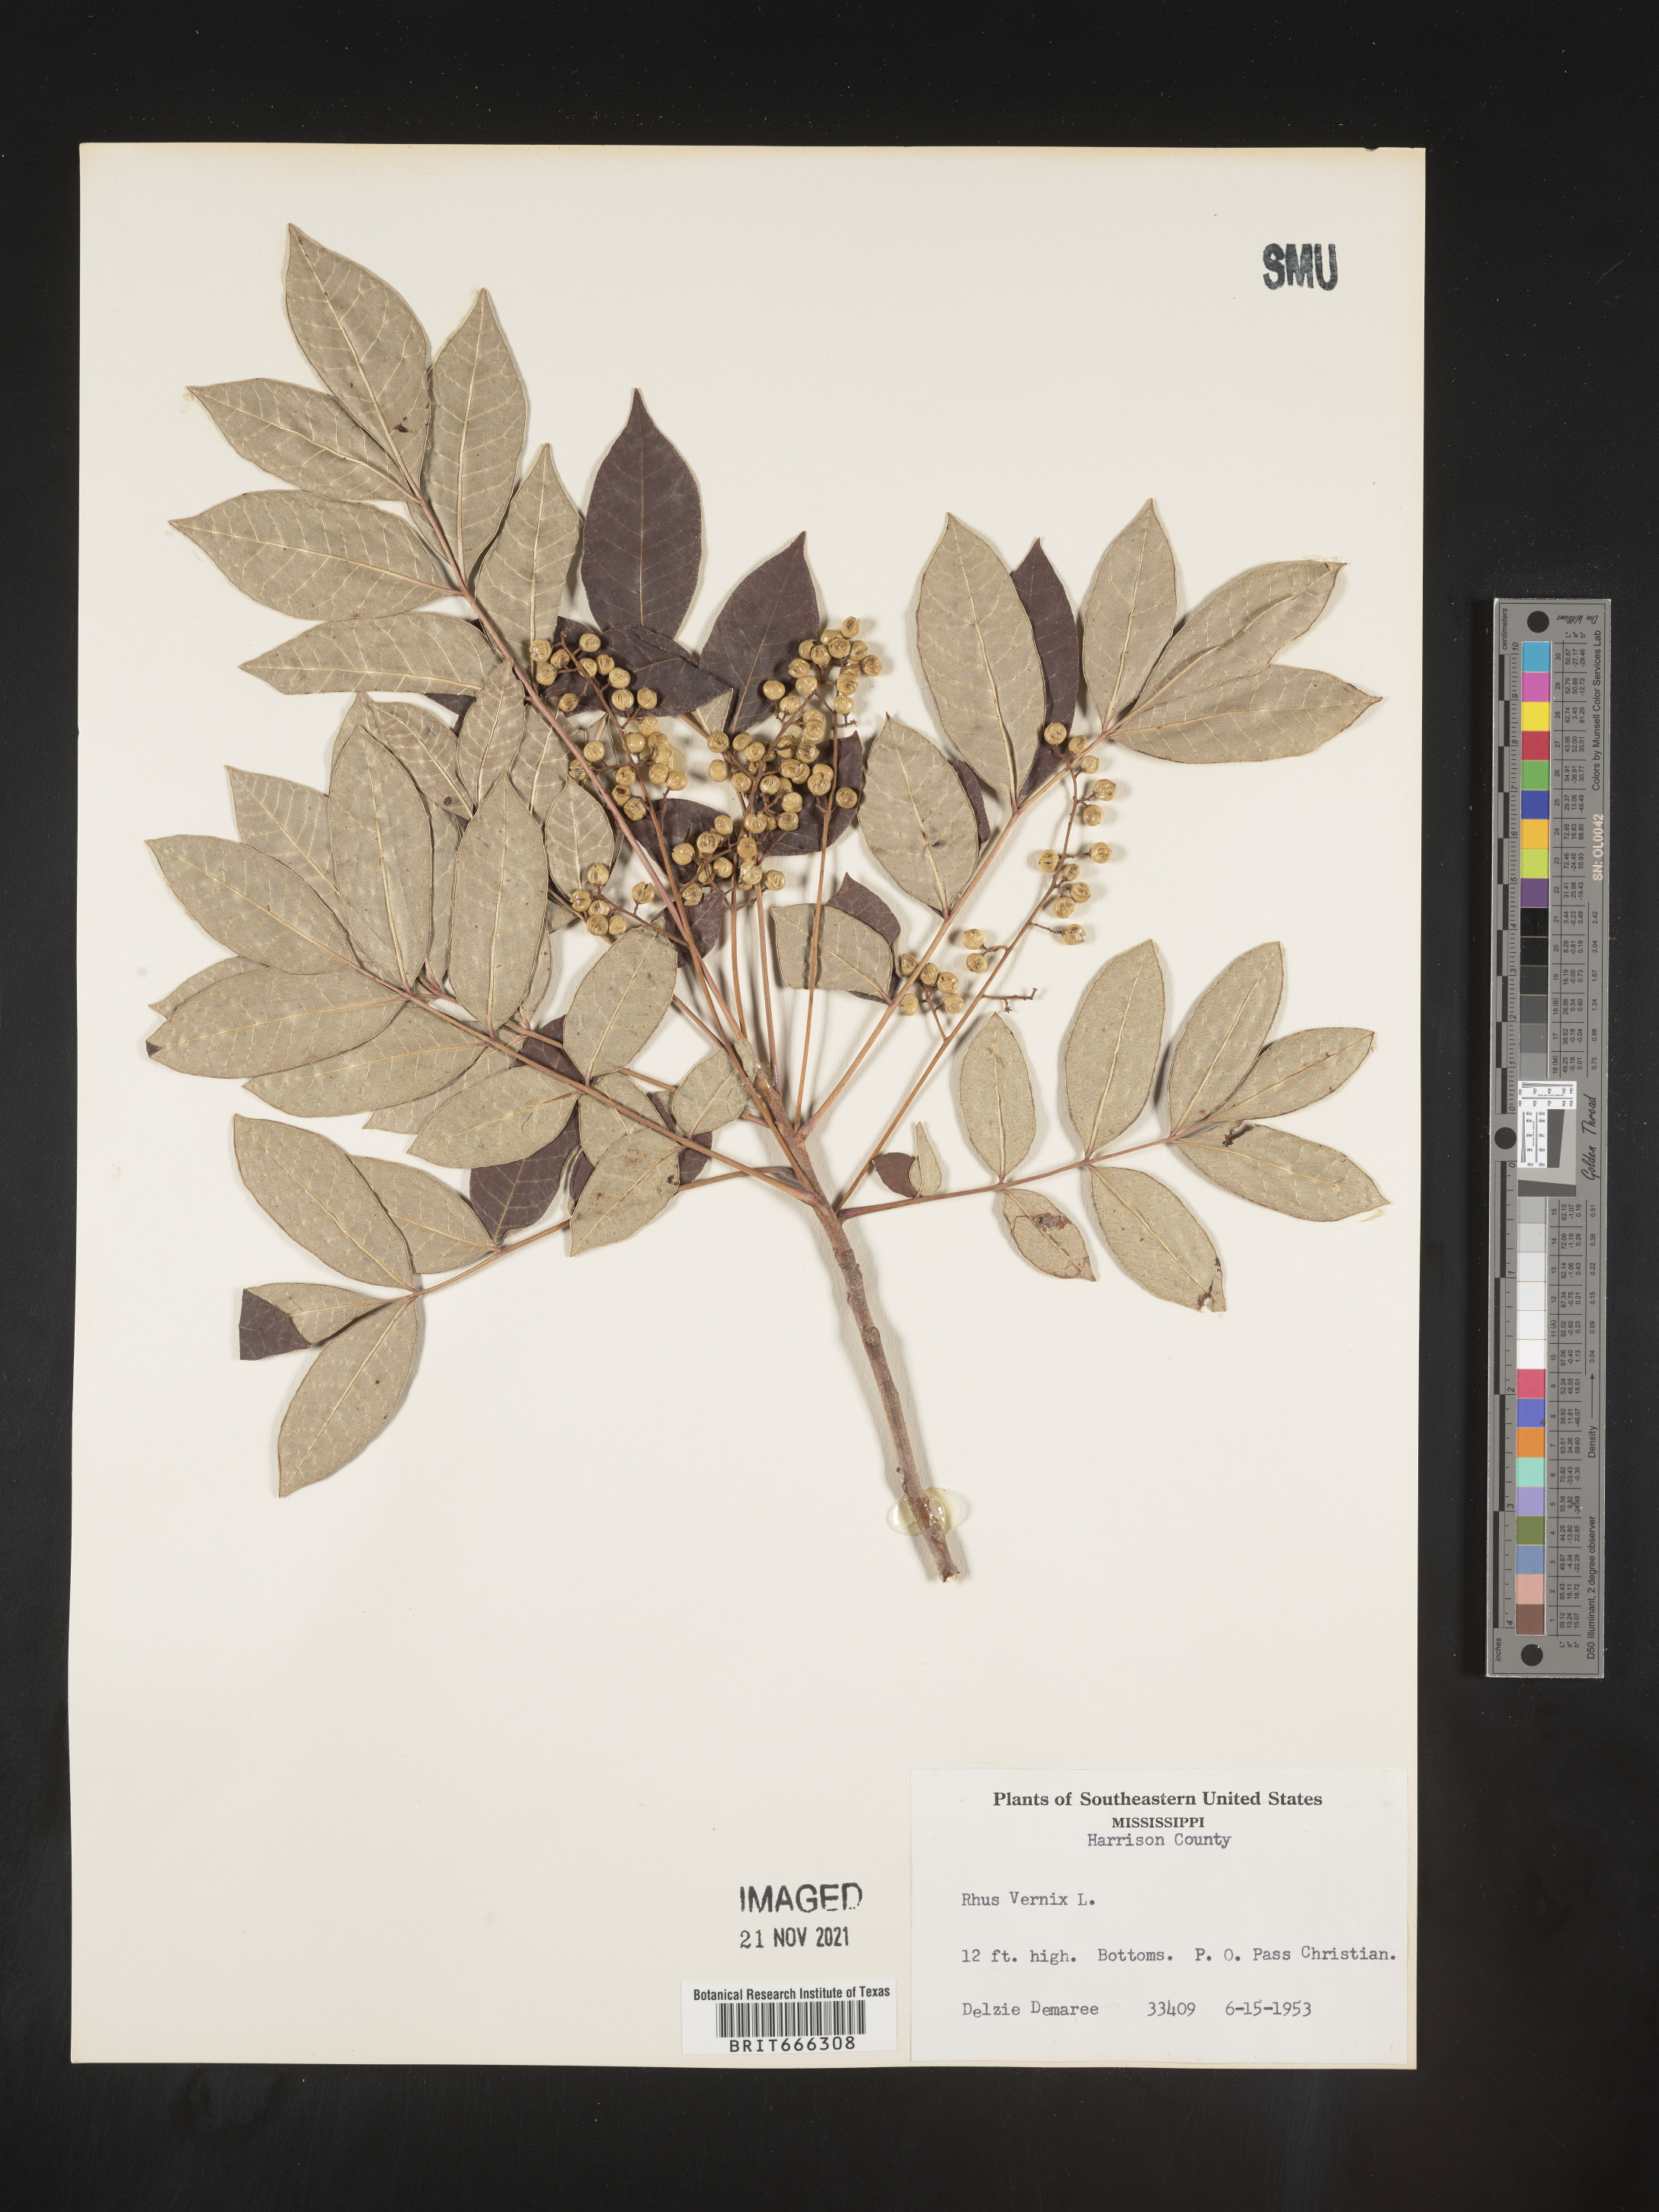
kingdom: Plantae
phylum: Tracheophyta
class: Magnoliopsida
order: Sapindales
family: Anacardiaceae
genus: Toxicodendron
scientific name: Toxicodendron vernix
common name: Poison sumac
